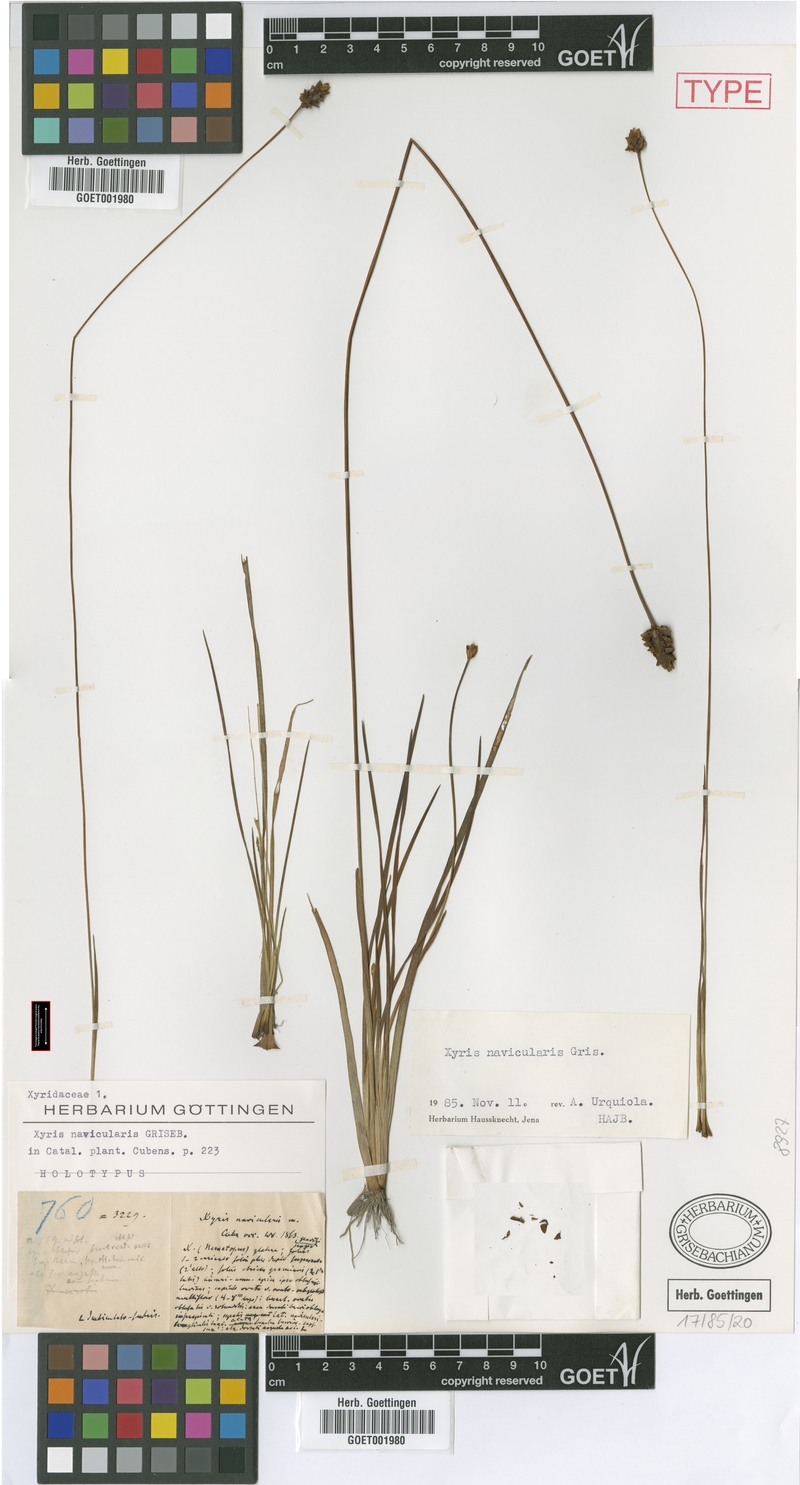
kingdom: Plantae
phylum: Tracheophyta
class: Liliopsida
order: Poales
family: Xyridaceae
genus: Xyris
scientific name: Xyris navicularis
